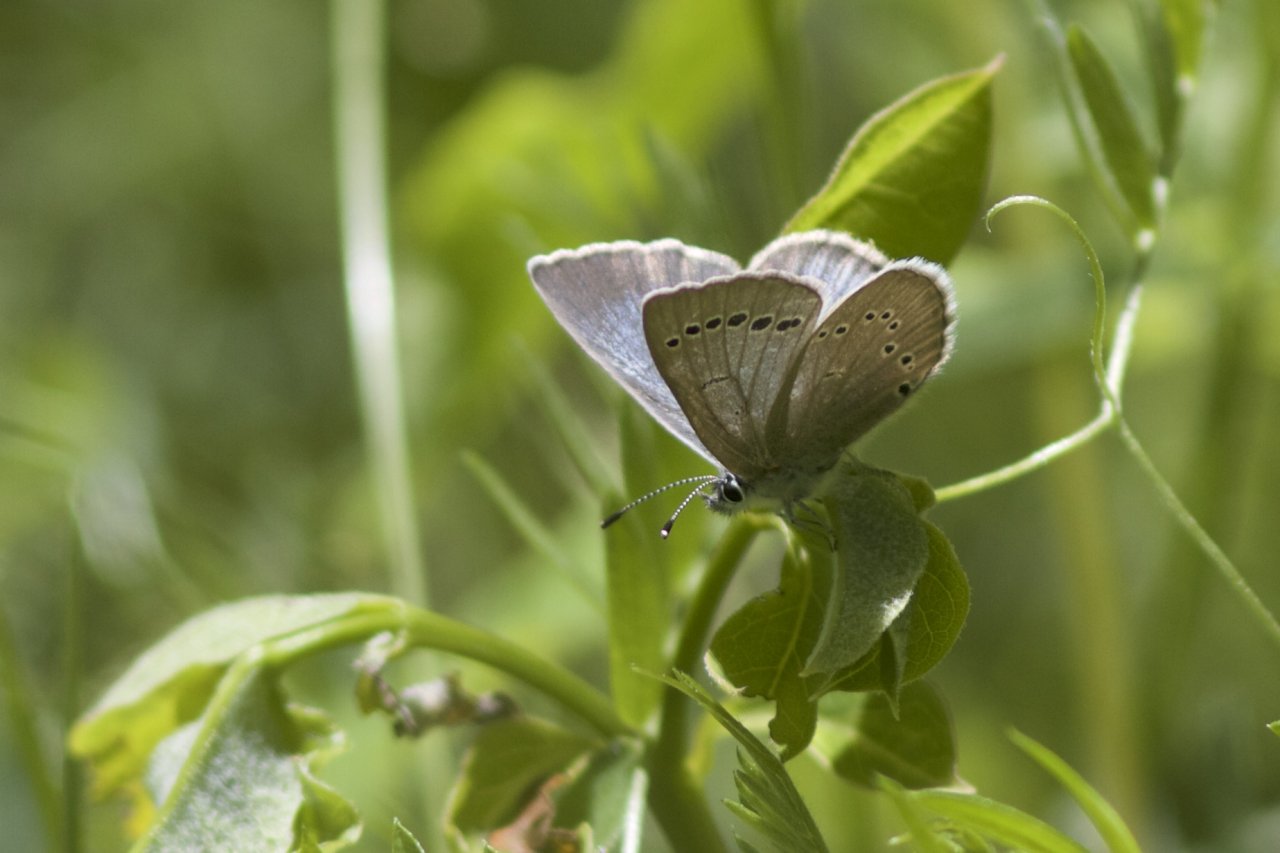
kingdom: Animalia
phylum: Arthropoda
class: Insecta
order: Lepidoptera
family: Lycaenidae
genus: Glaucopsyche
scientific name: Glaucopsyche lygdamus
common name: Silvery Blue
